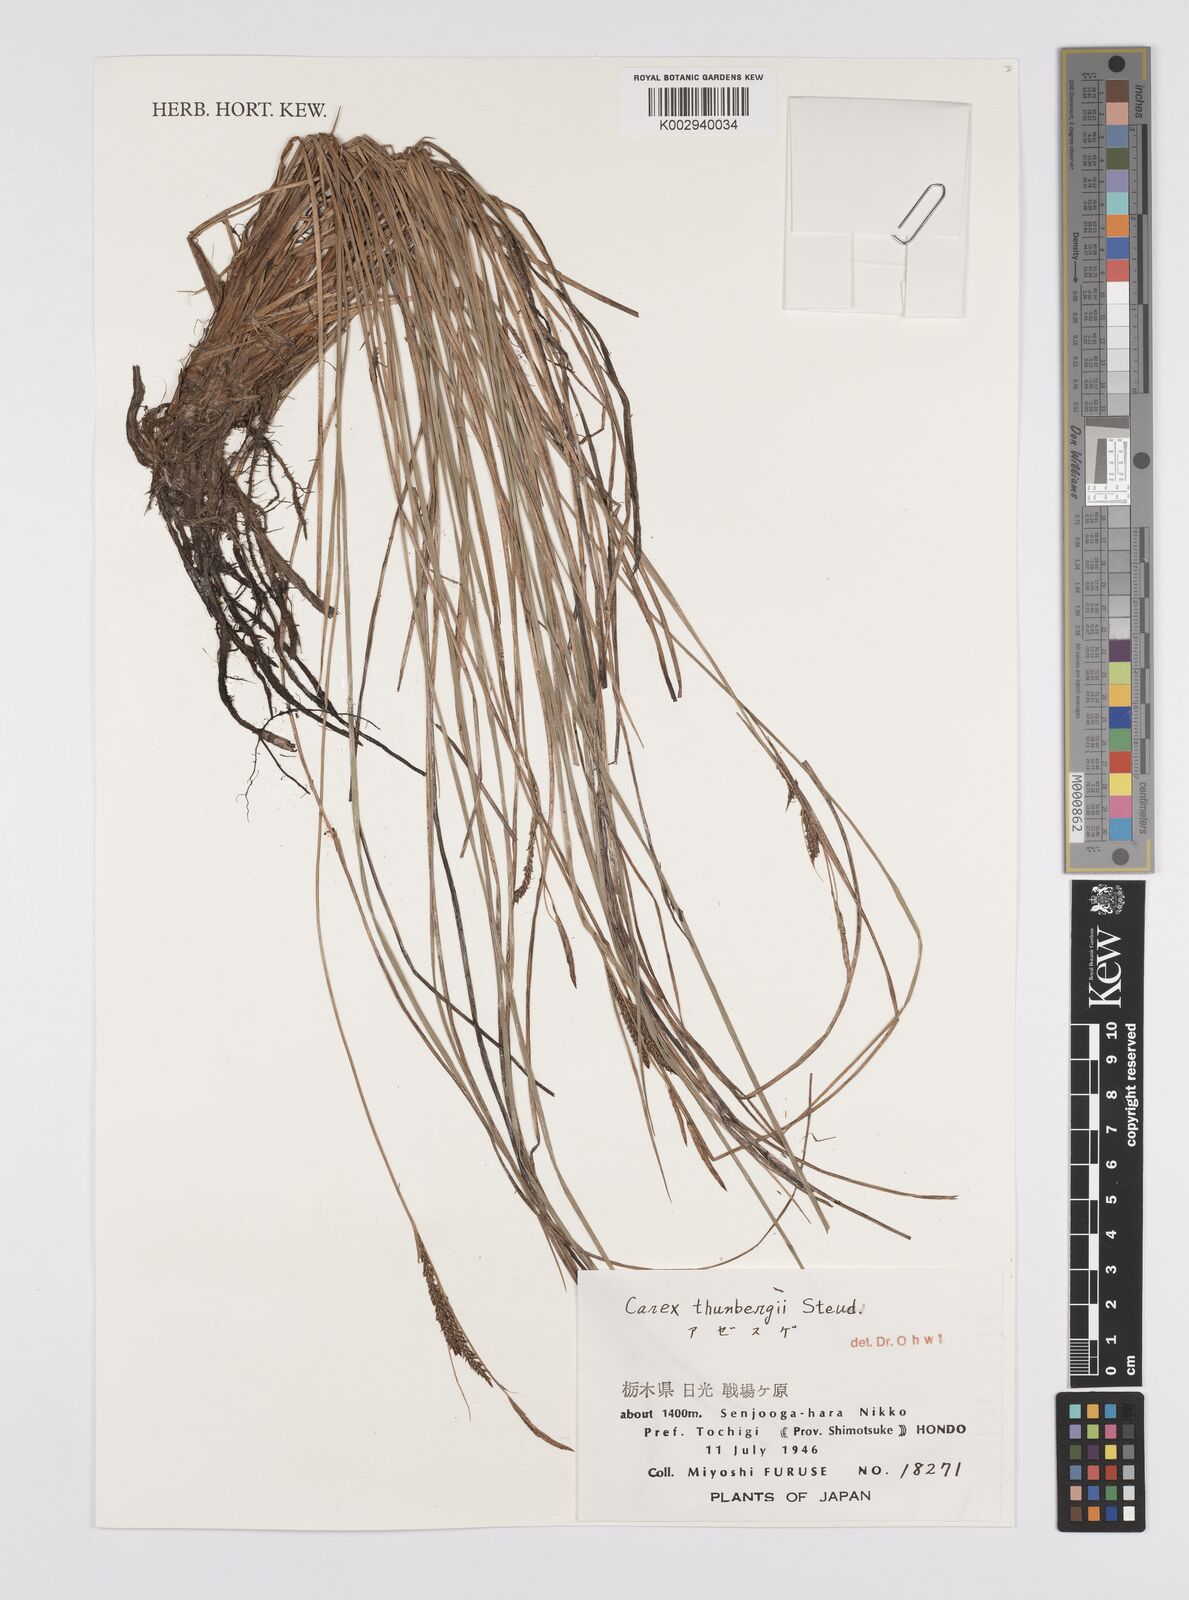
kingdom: Plantae
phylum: Tracheophyta
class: Liliopsida
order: Poales
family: Cyperaceae
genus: Carex
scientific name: Carex thunbergii
